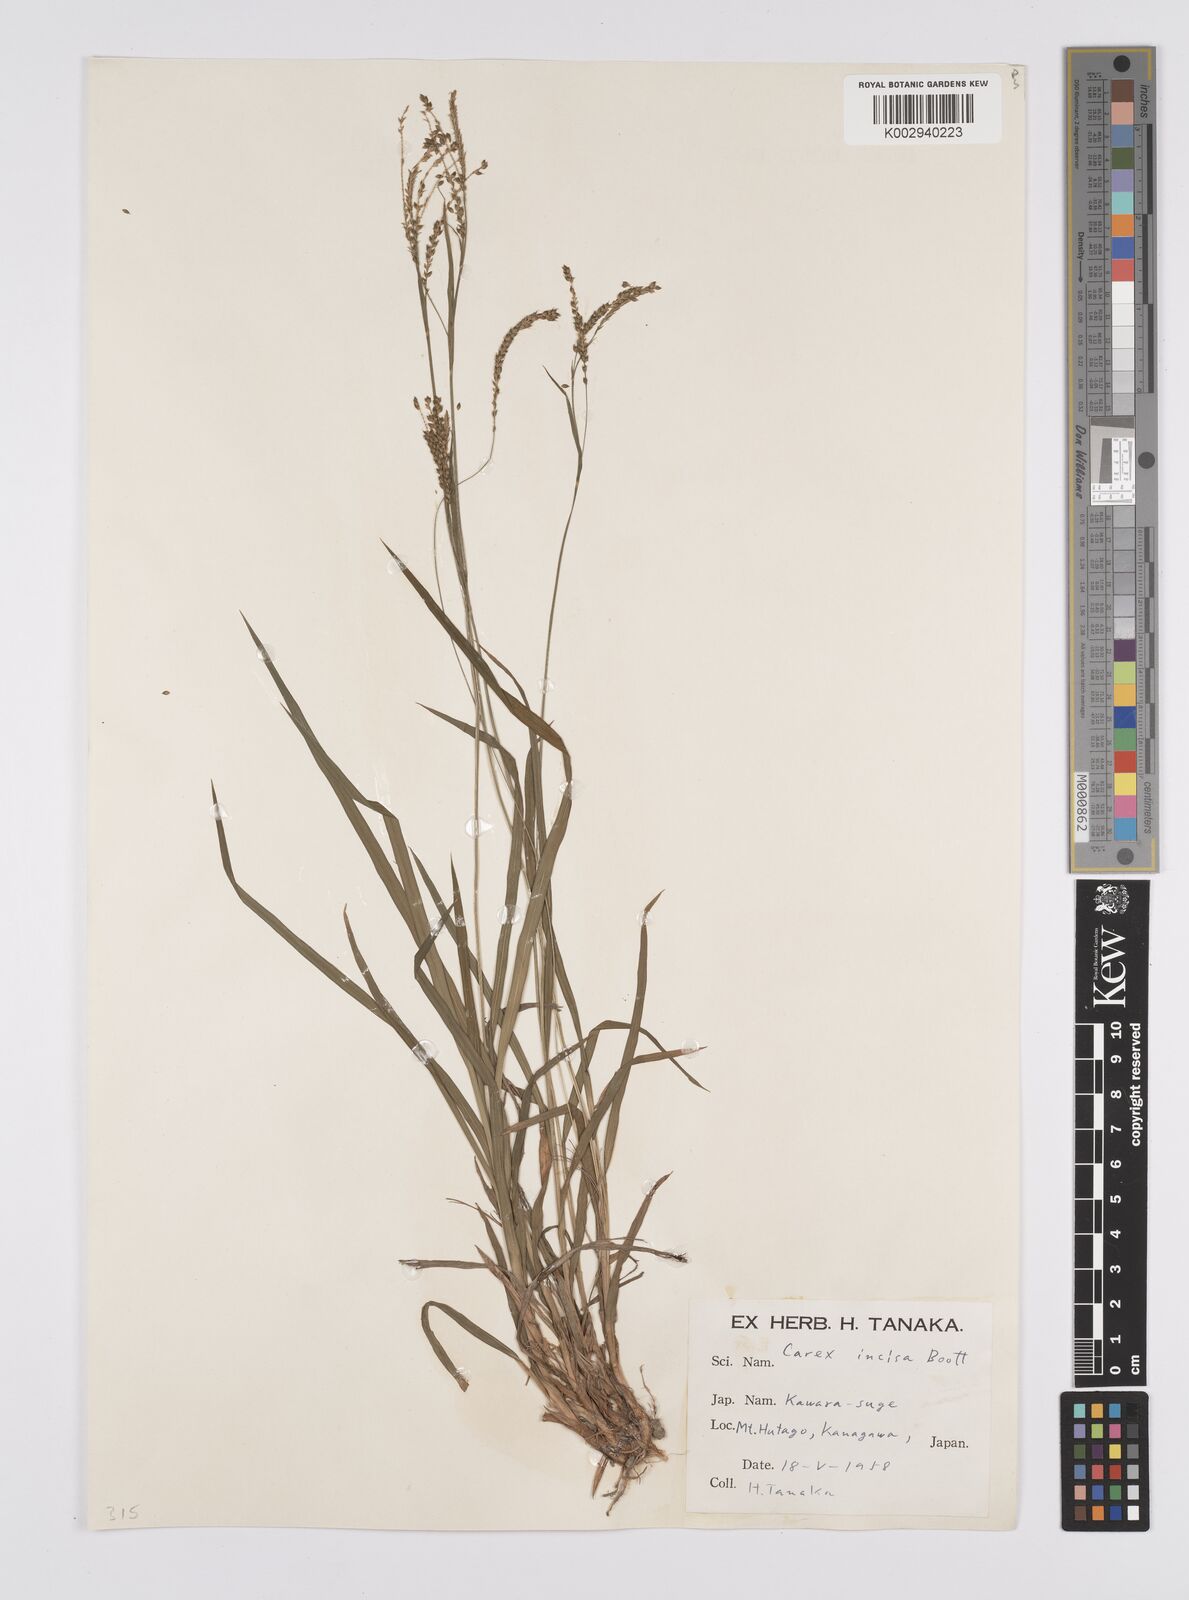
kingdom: Plantae
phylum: Tracheophyta
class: Liliopsida
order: Poales
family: Cyperaceae
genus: Carex
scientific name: Carex incisa
